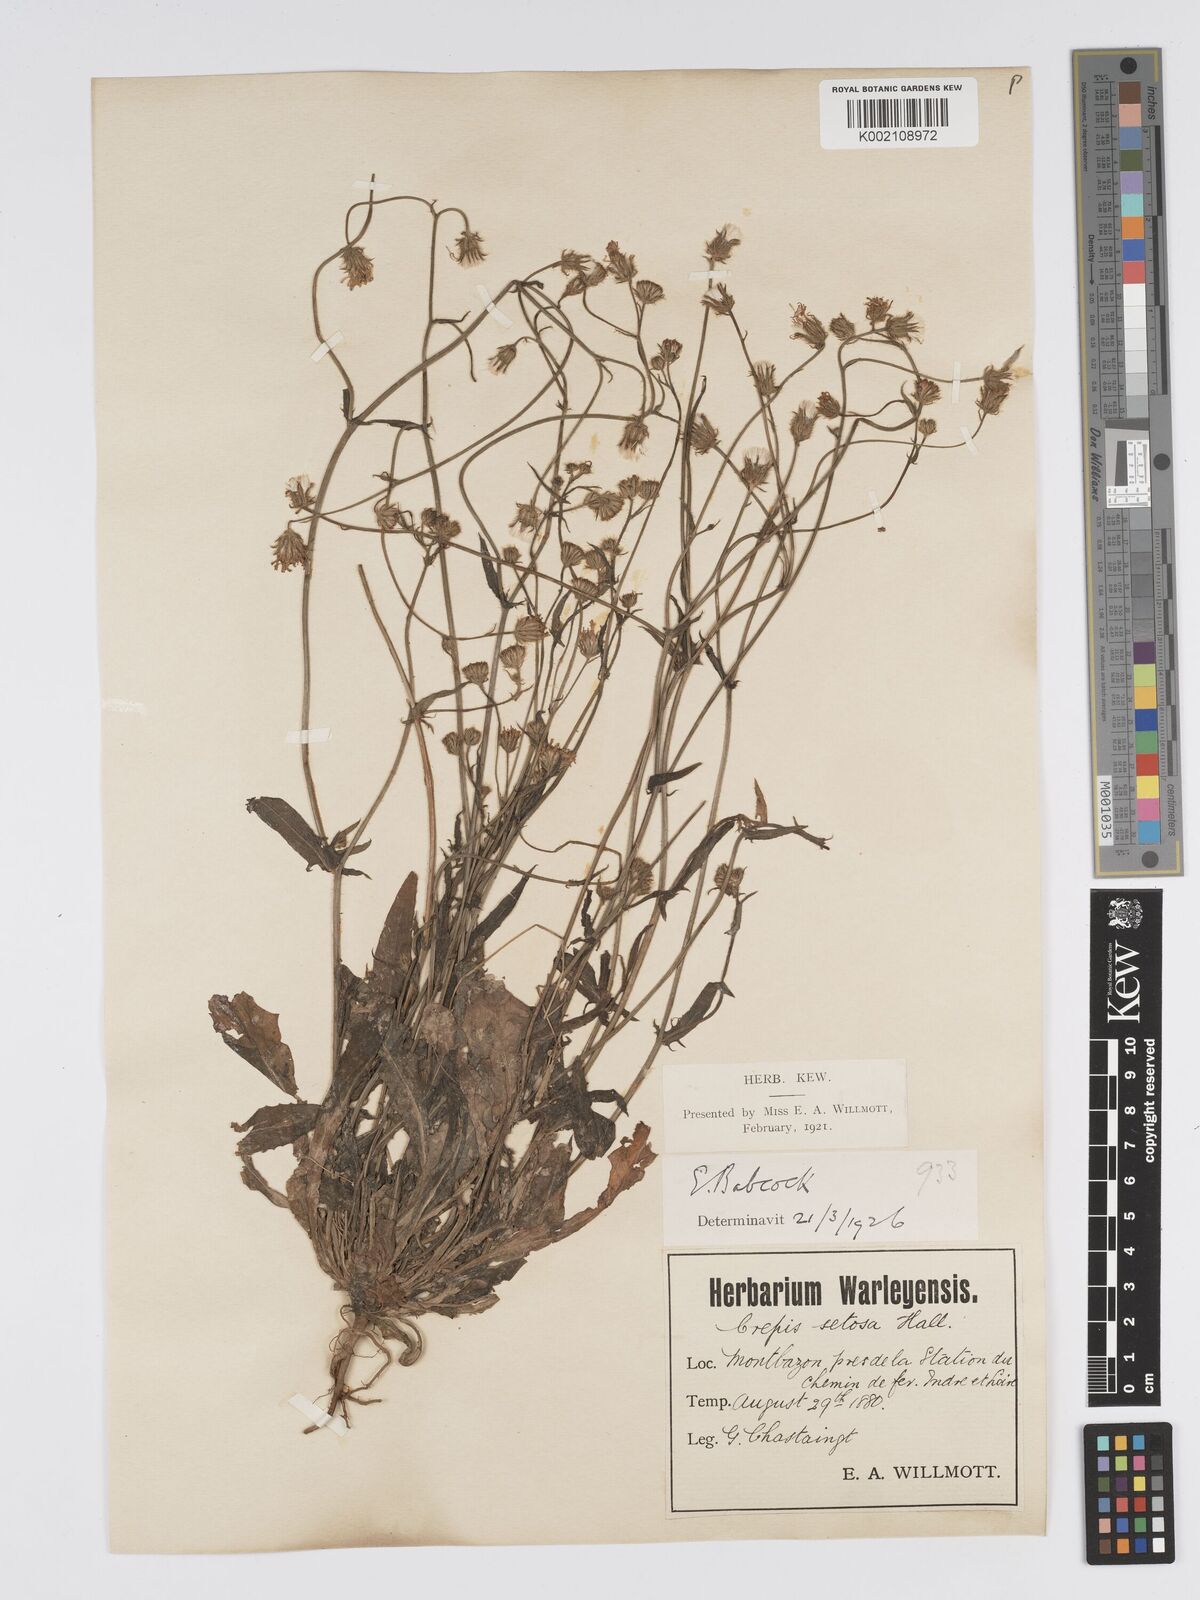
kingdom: Plantae
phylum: Tracheophyta
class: Magnoliopsida
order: Asterales
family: Asteraceae
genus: Crepis
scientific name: Crepis setosa
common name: Bristly hawk's-beard
